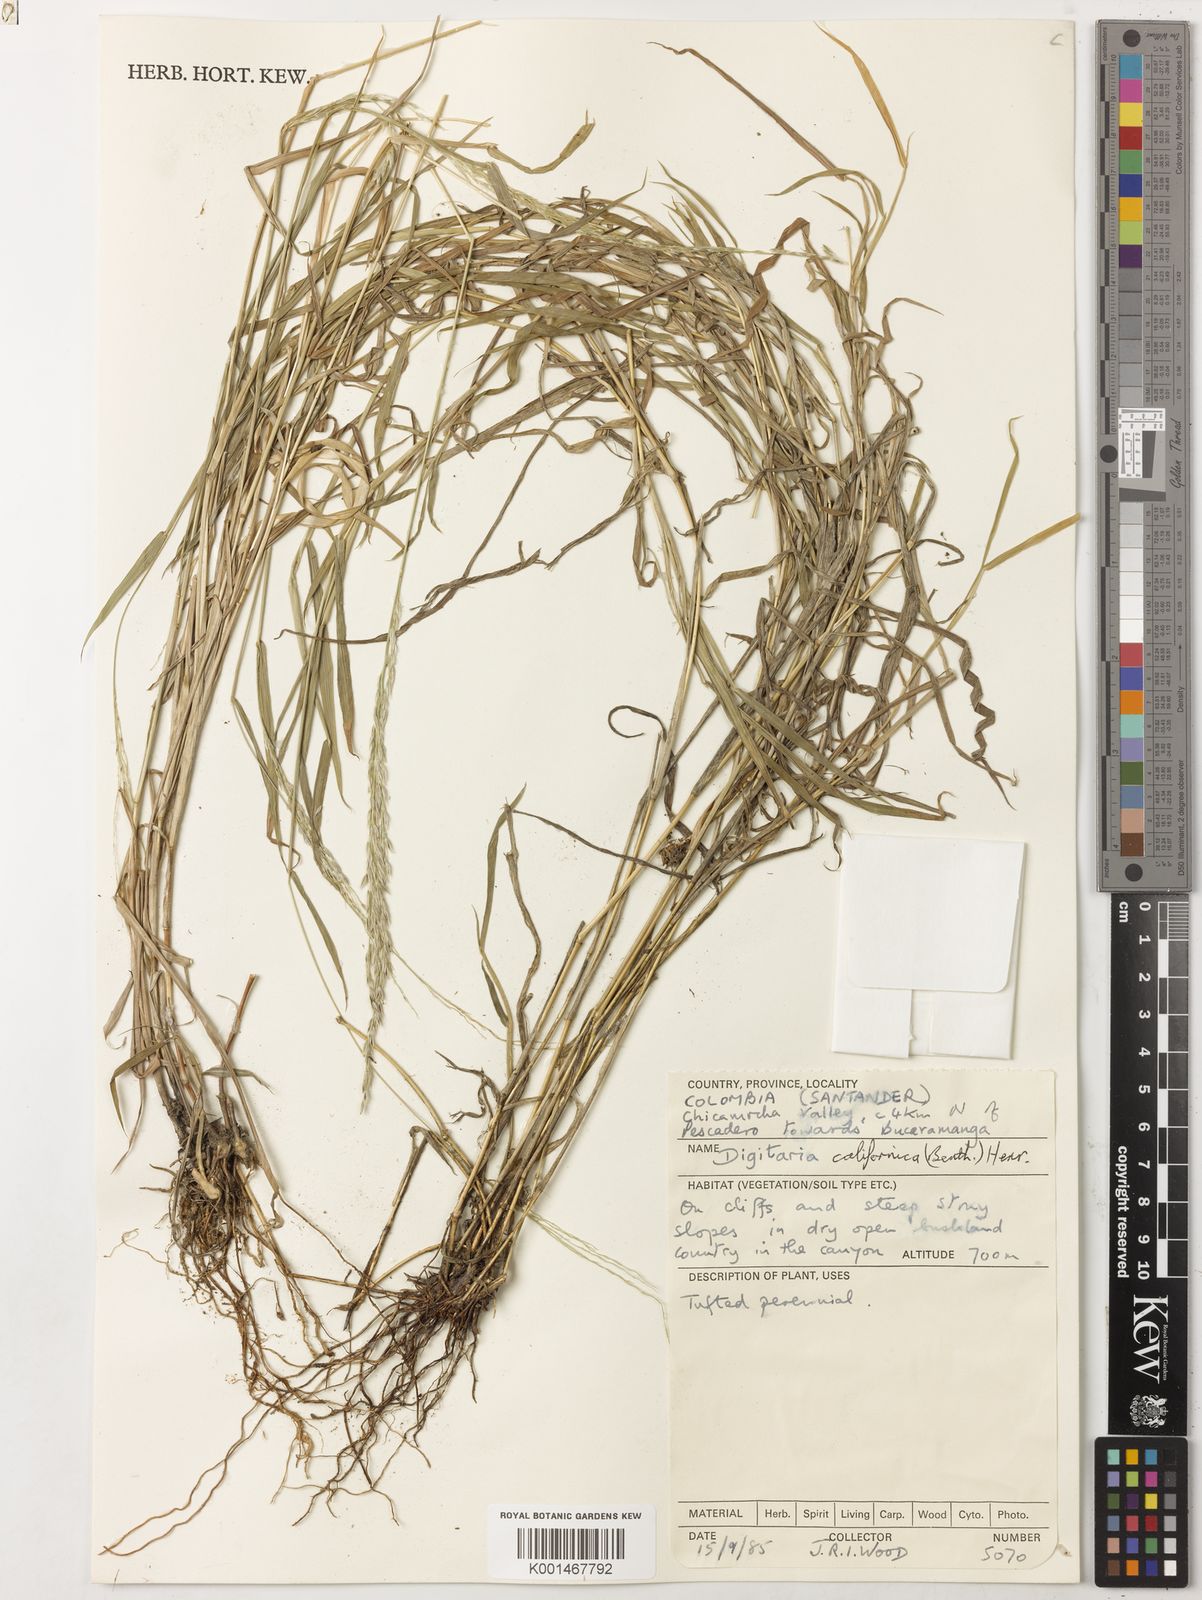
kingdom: Plantae
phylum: Tracheophyta
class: Liliopsida
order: Poales
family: Poaceae
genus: Digitaria
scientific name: Digitaria
